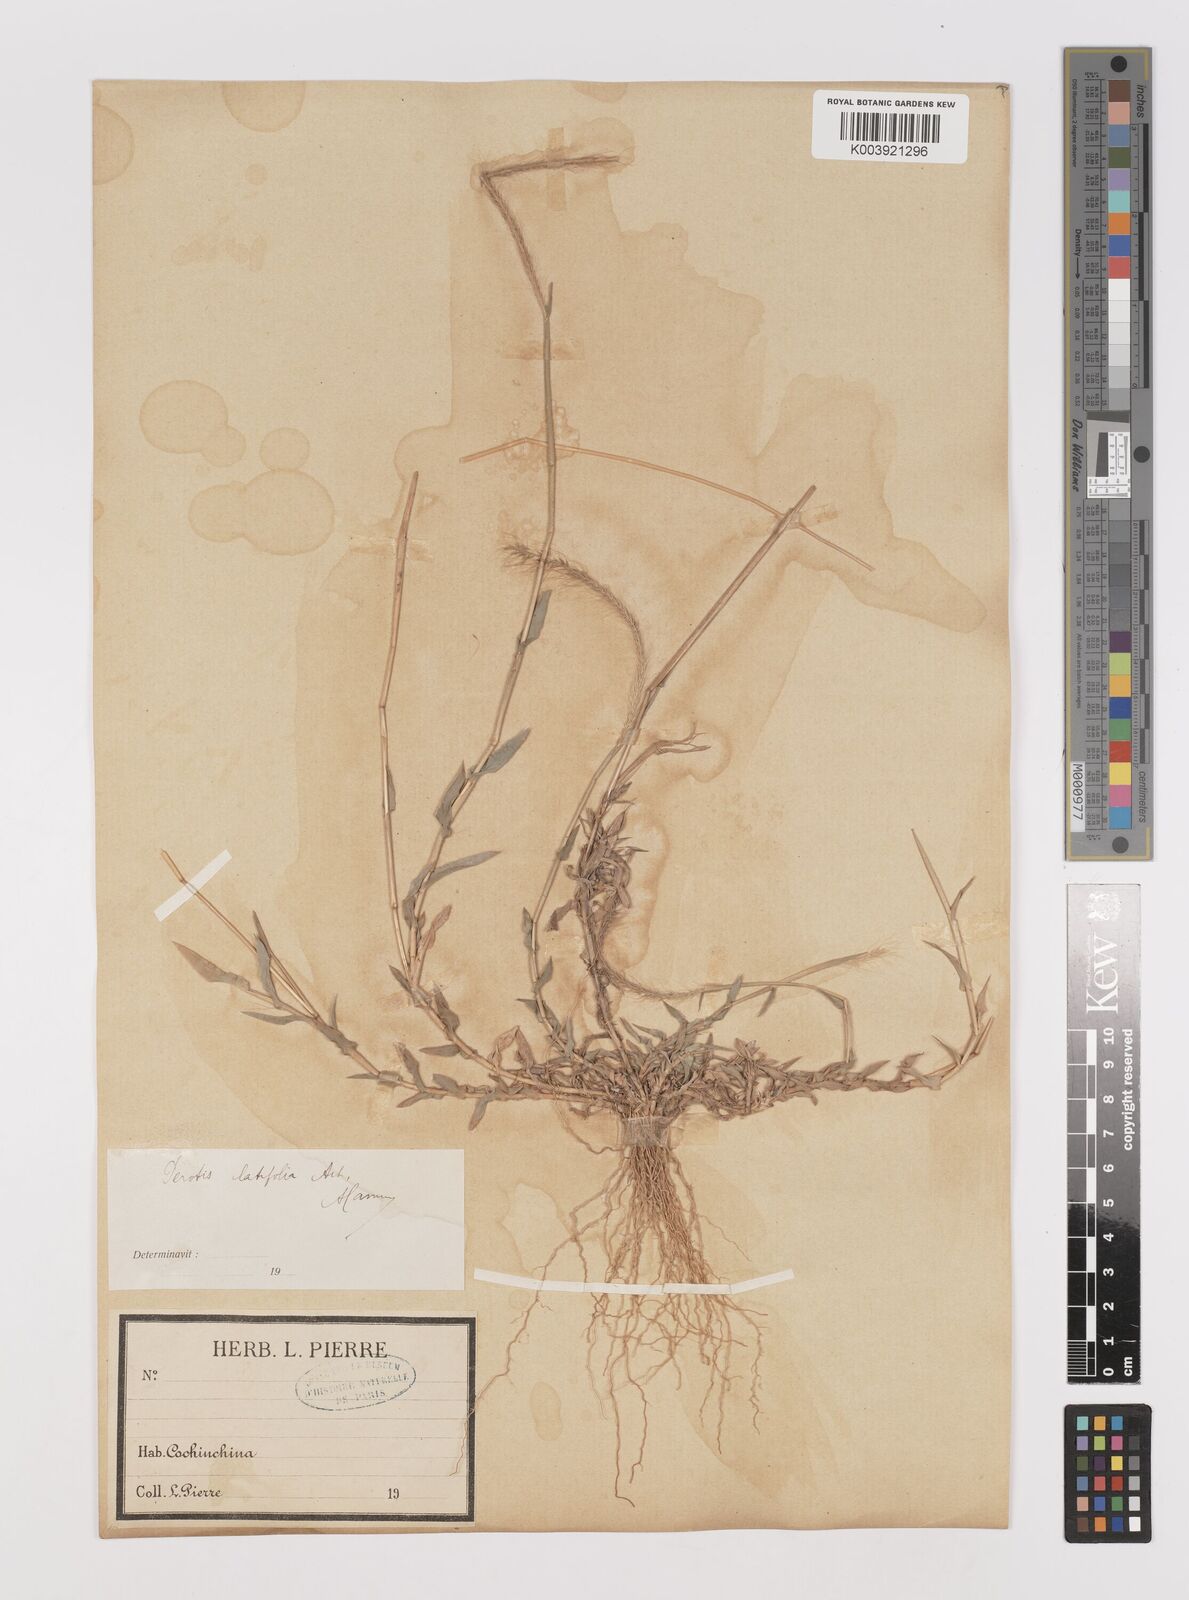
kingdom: Plantae
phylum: Tracheophyta
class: Liliopsida
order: Poales
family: Poaceae
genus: Perotis
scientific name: Perotis indica
